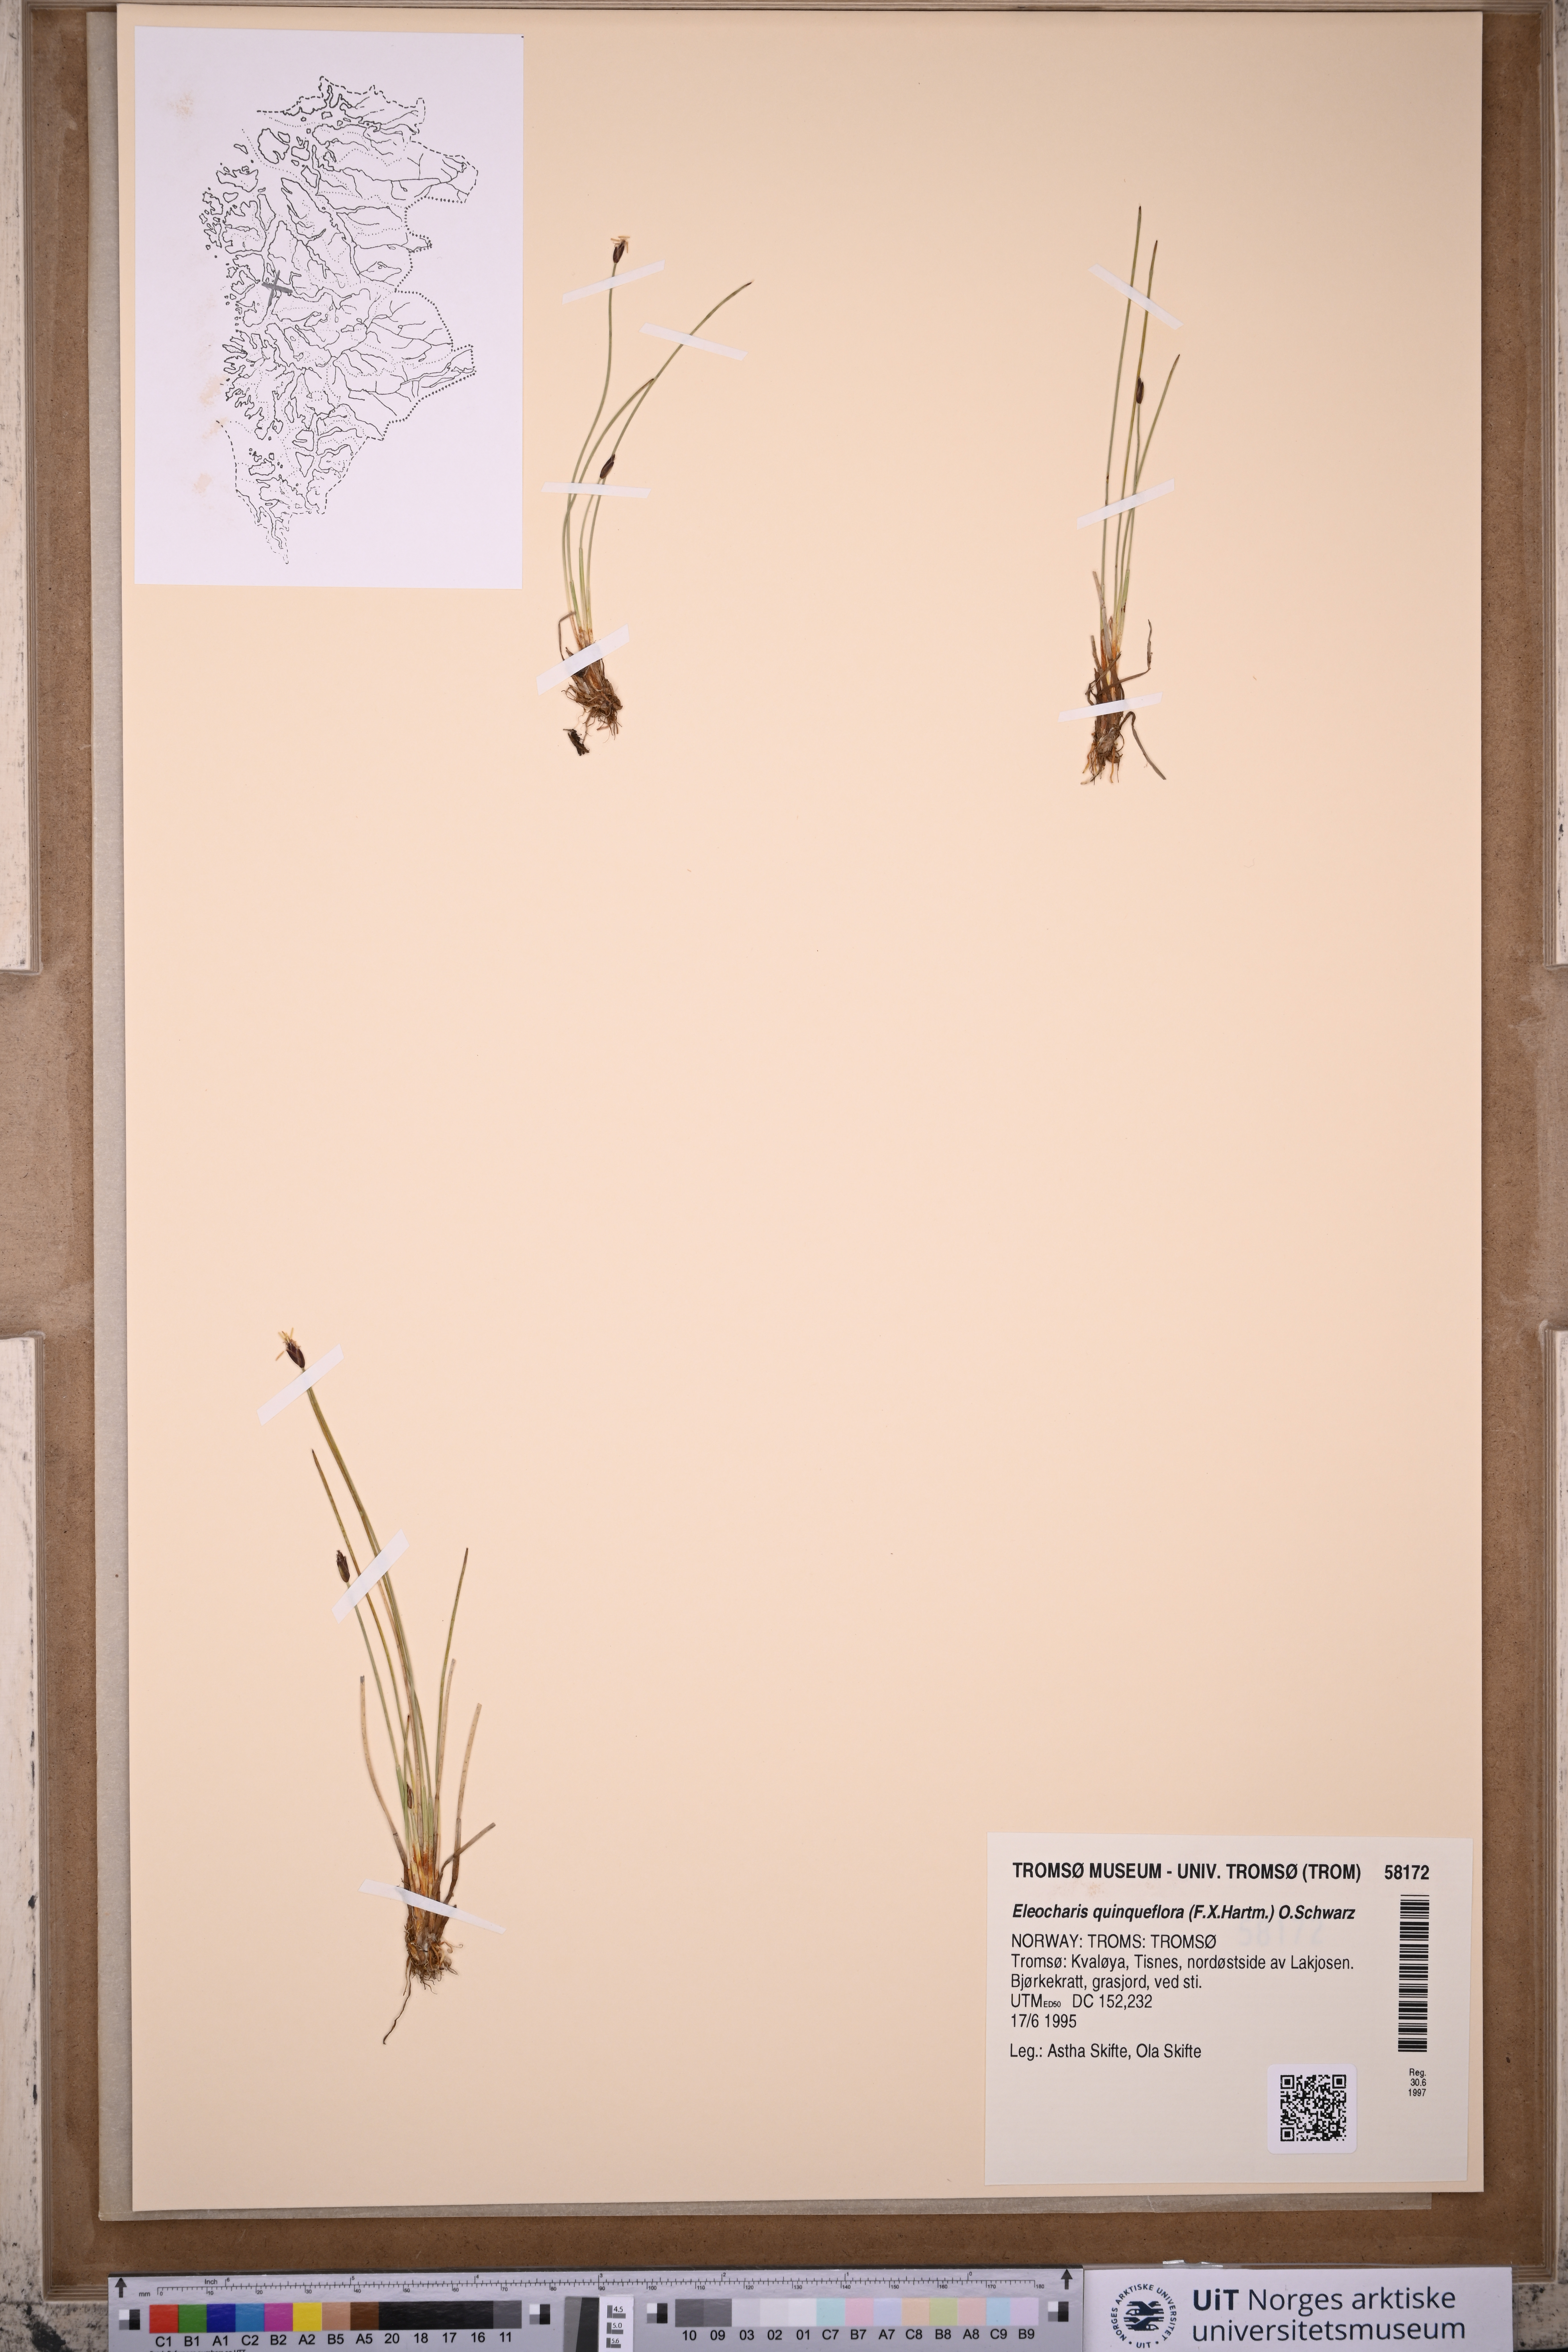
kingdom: Plantae
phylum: Tracheophyta
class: Liliopsida
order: Poales
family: Cyperaceae
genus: Eleocharis
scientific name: Eleocharis quinqueflora
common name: Few-flowered spike-rush
